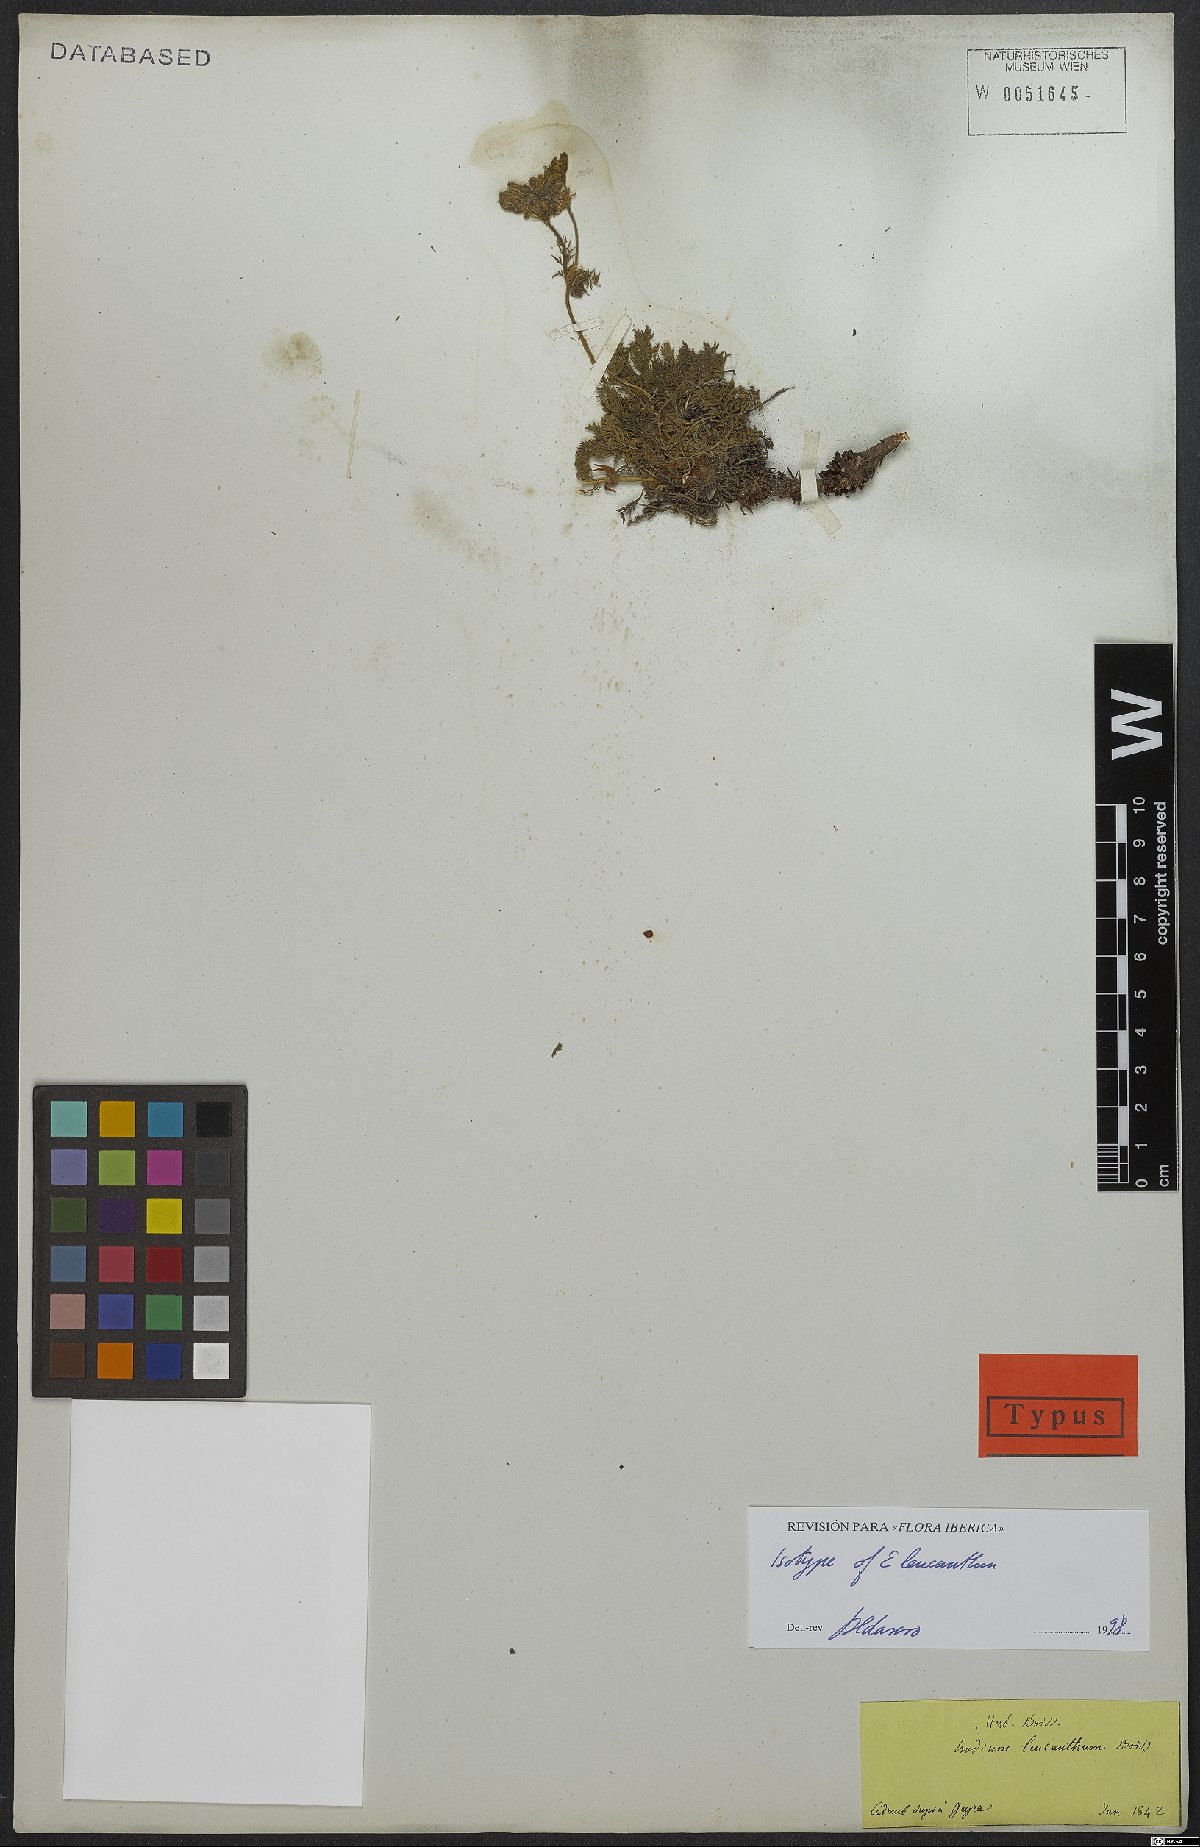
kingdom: Plantae
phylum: Tracheophyta
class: Magnoliopsida
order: Geraniales
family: Geraniaceae
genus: Erodium
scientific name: Erodium trichomanifolium
